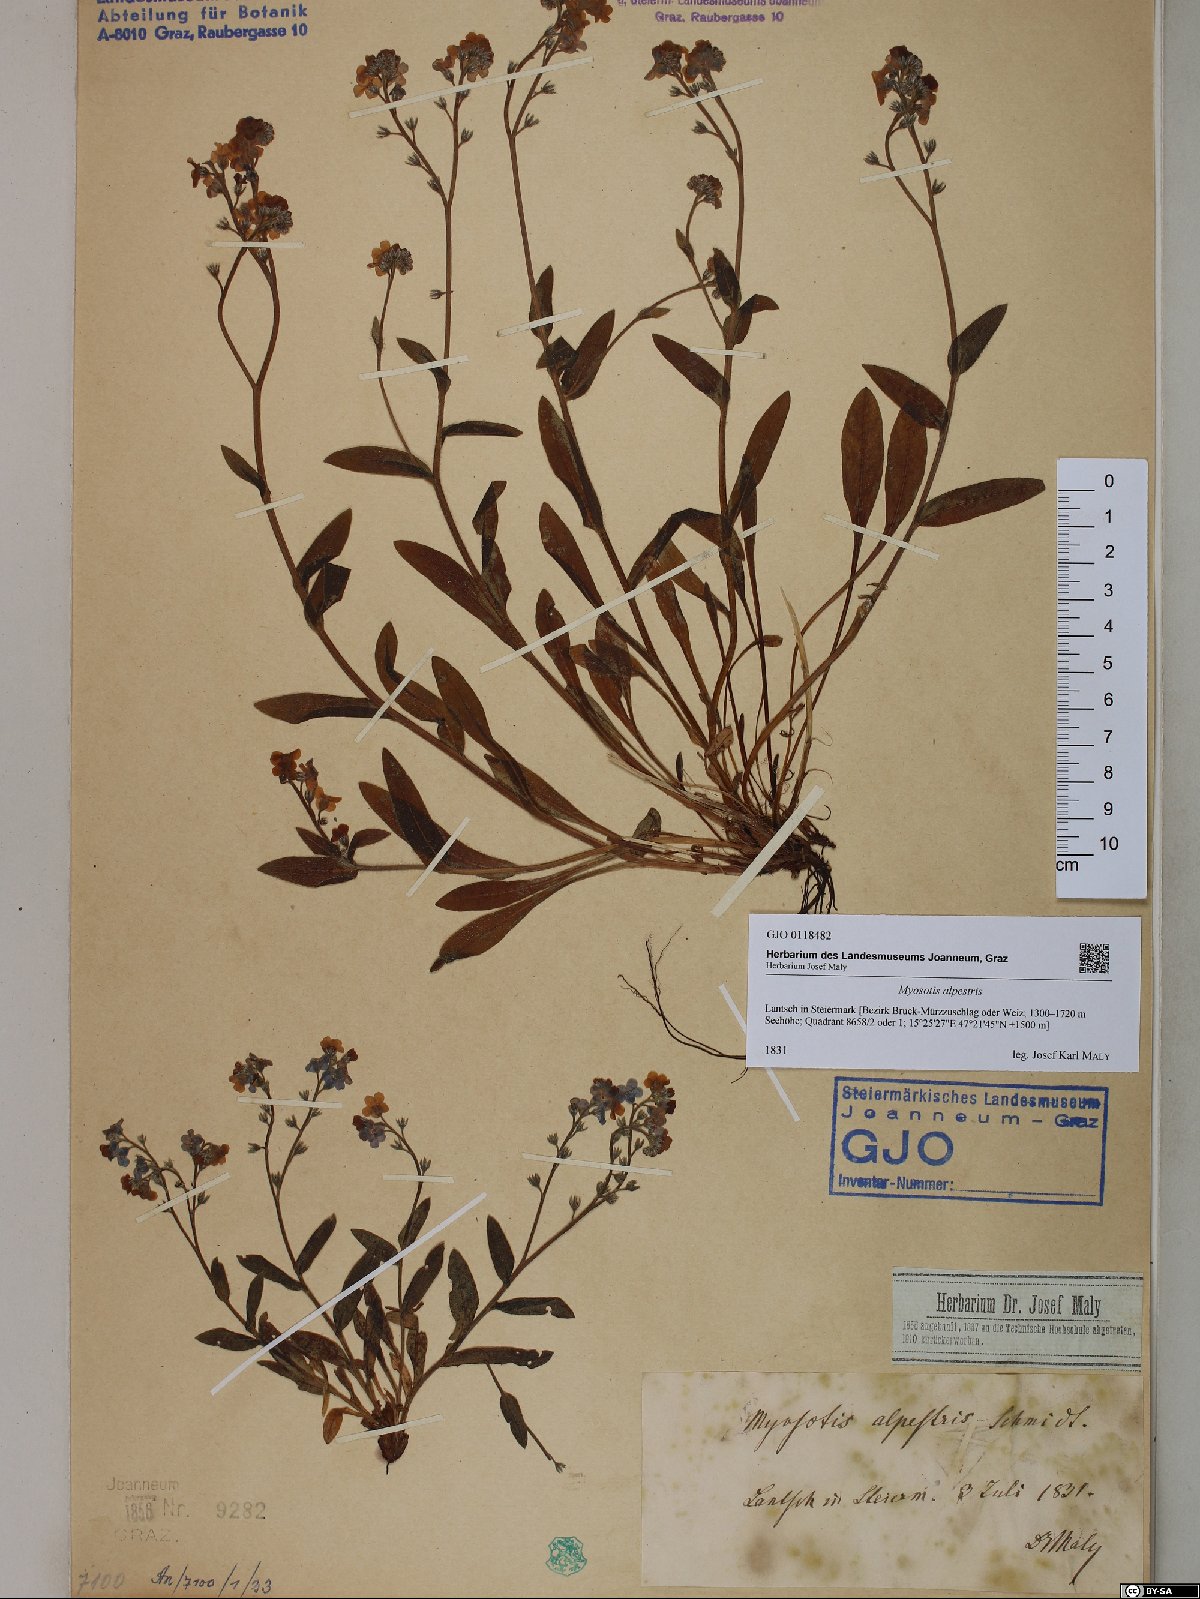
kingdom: Plantae
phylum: Tracheophyta
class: Magnoliopsida
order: Boraginales
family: Boraginaceae
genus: Myosotis
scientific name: Myosotis alpestris
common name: Alpine forget-me-not
